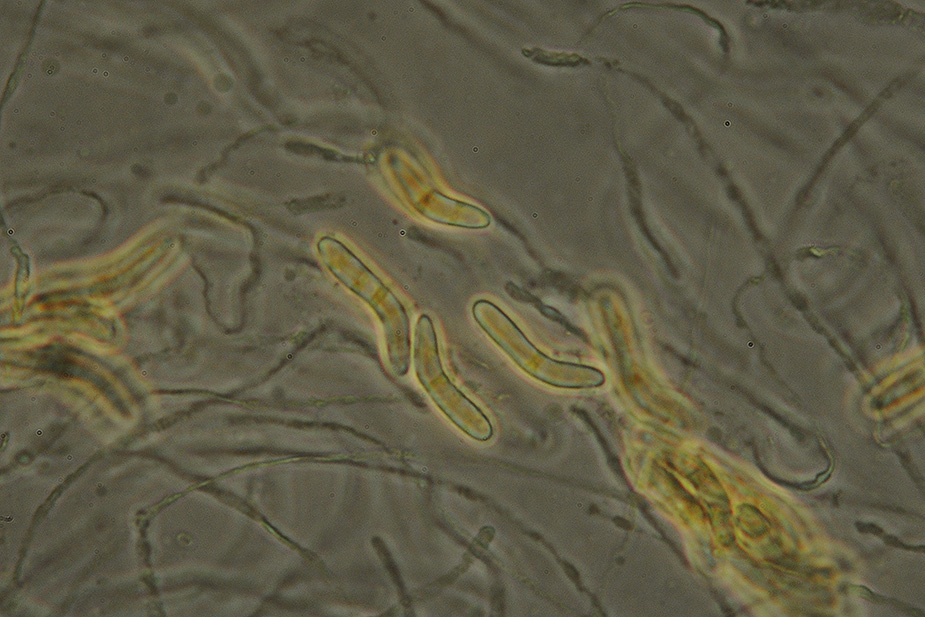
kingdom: Fungi
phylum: Ascomycota
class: Sordariomycetes
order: Sordariales
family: Helminthosphaeriaceae
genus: Ruzenia
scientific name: Ruzenia spermoides
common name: glat børstekerne
